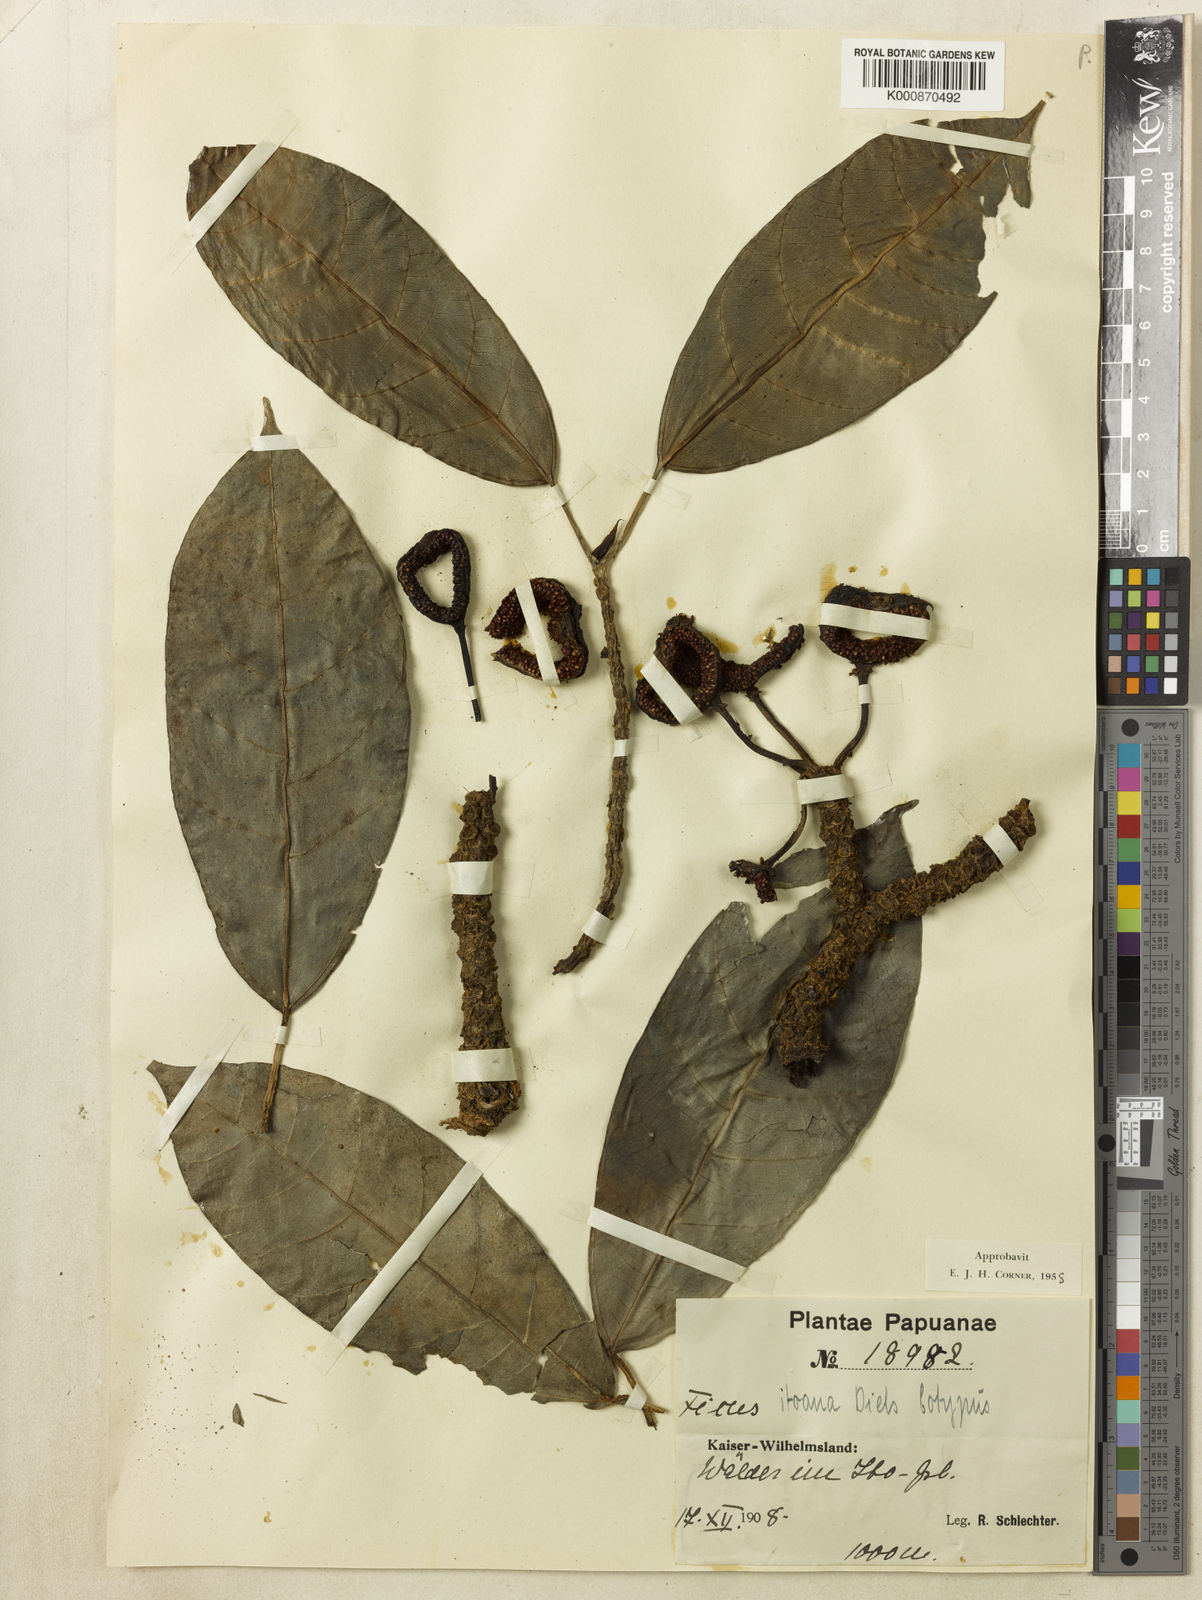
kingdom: Plantae
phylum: Tracheophyta
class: Magnoliopsida
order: Rosales
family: Moraceae
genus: Ficus
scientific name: Ficus itoana
